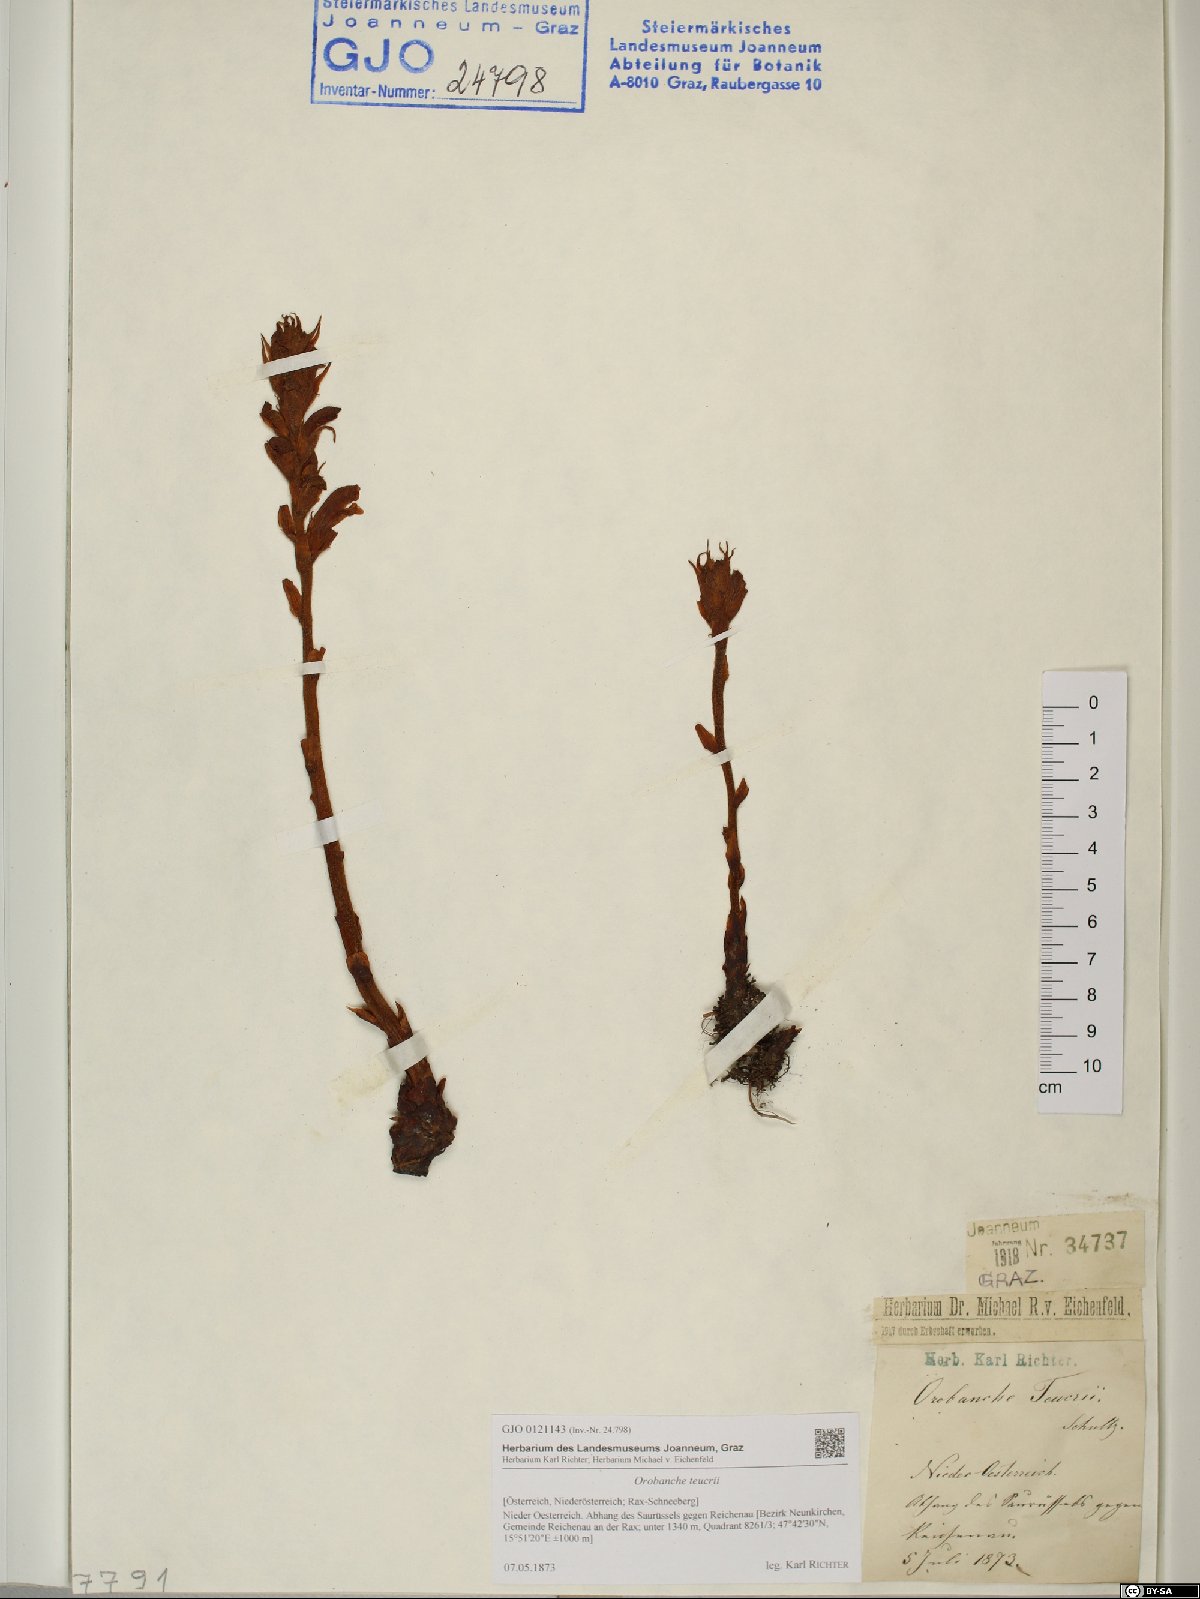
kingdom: Plantae
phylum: Tracheophyta
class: Magnoliopsida
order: Lamiales
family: Orobanchaceae
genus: Orobanche
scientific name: Orobanche teucrii
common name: Germander broomrape
